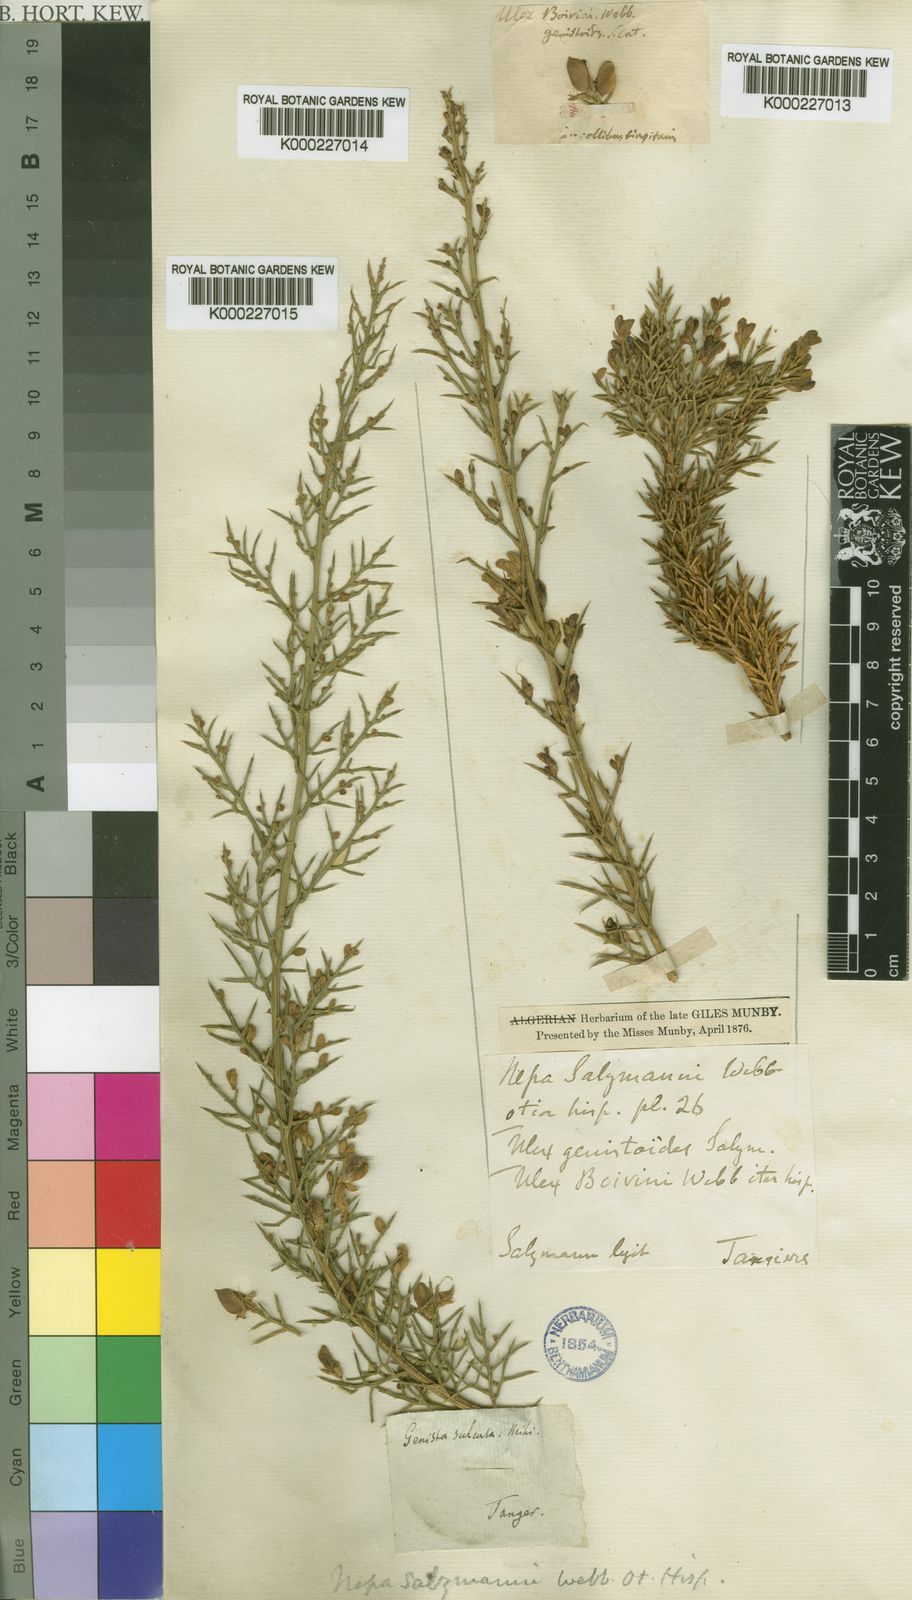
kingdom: Plantae
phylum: Tracheophyta
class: Magnoliopsida
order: Fabales
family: Fabaceae
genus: Stauracanthus
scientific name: Stauracanthus boivinii
